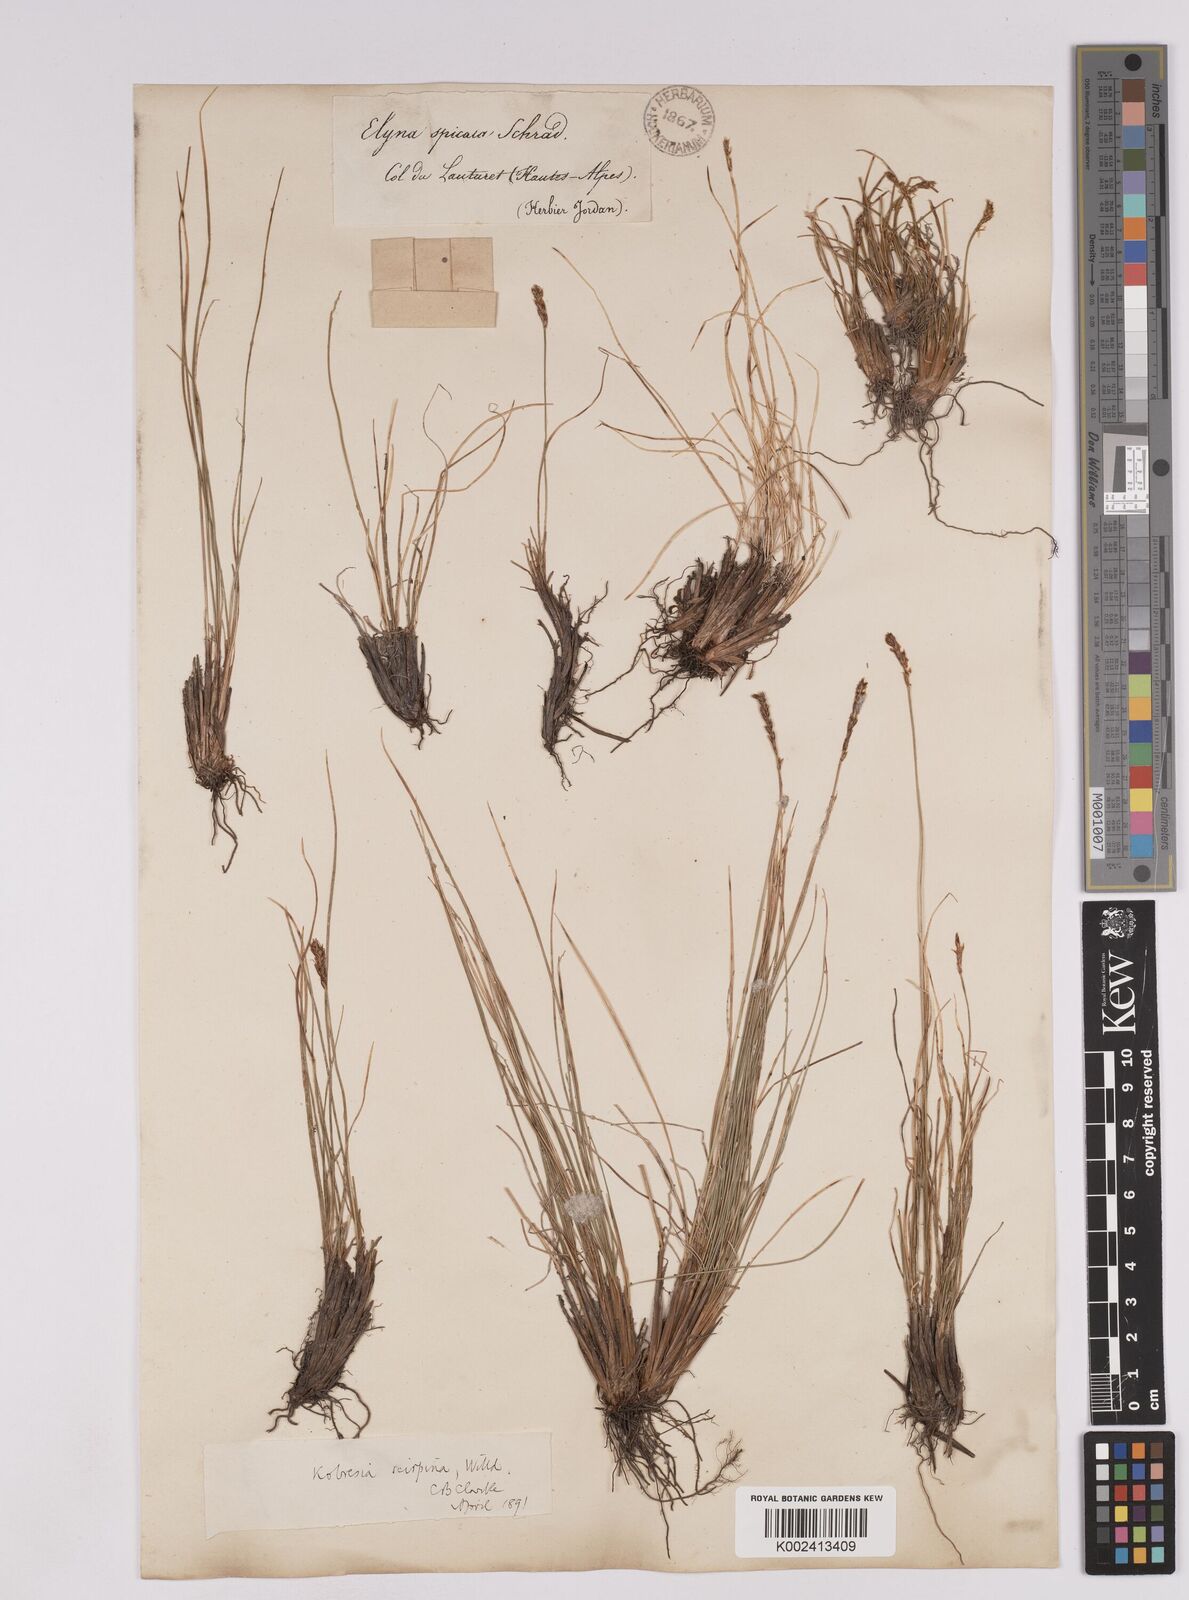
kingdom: Plantae
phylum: Tracheophyta
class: Liliopsida
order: Poales
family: Cyperaceae
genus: Carex
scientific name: Carex myosuroides
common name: Bellard's bog sedge
